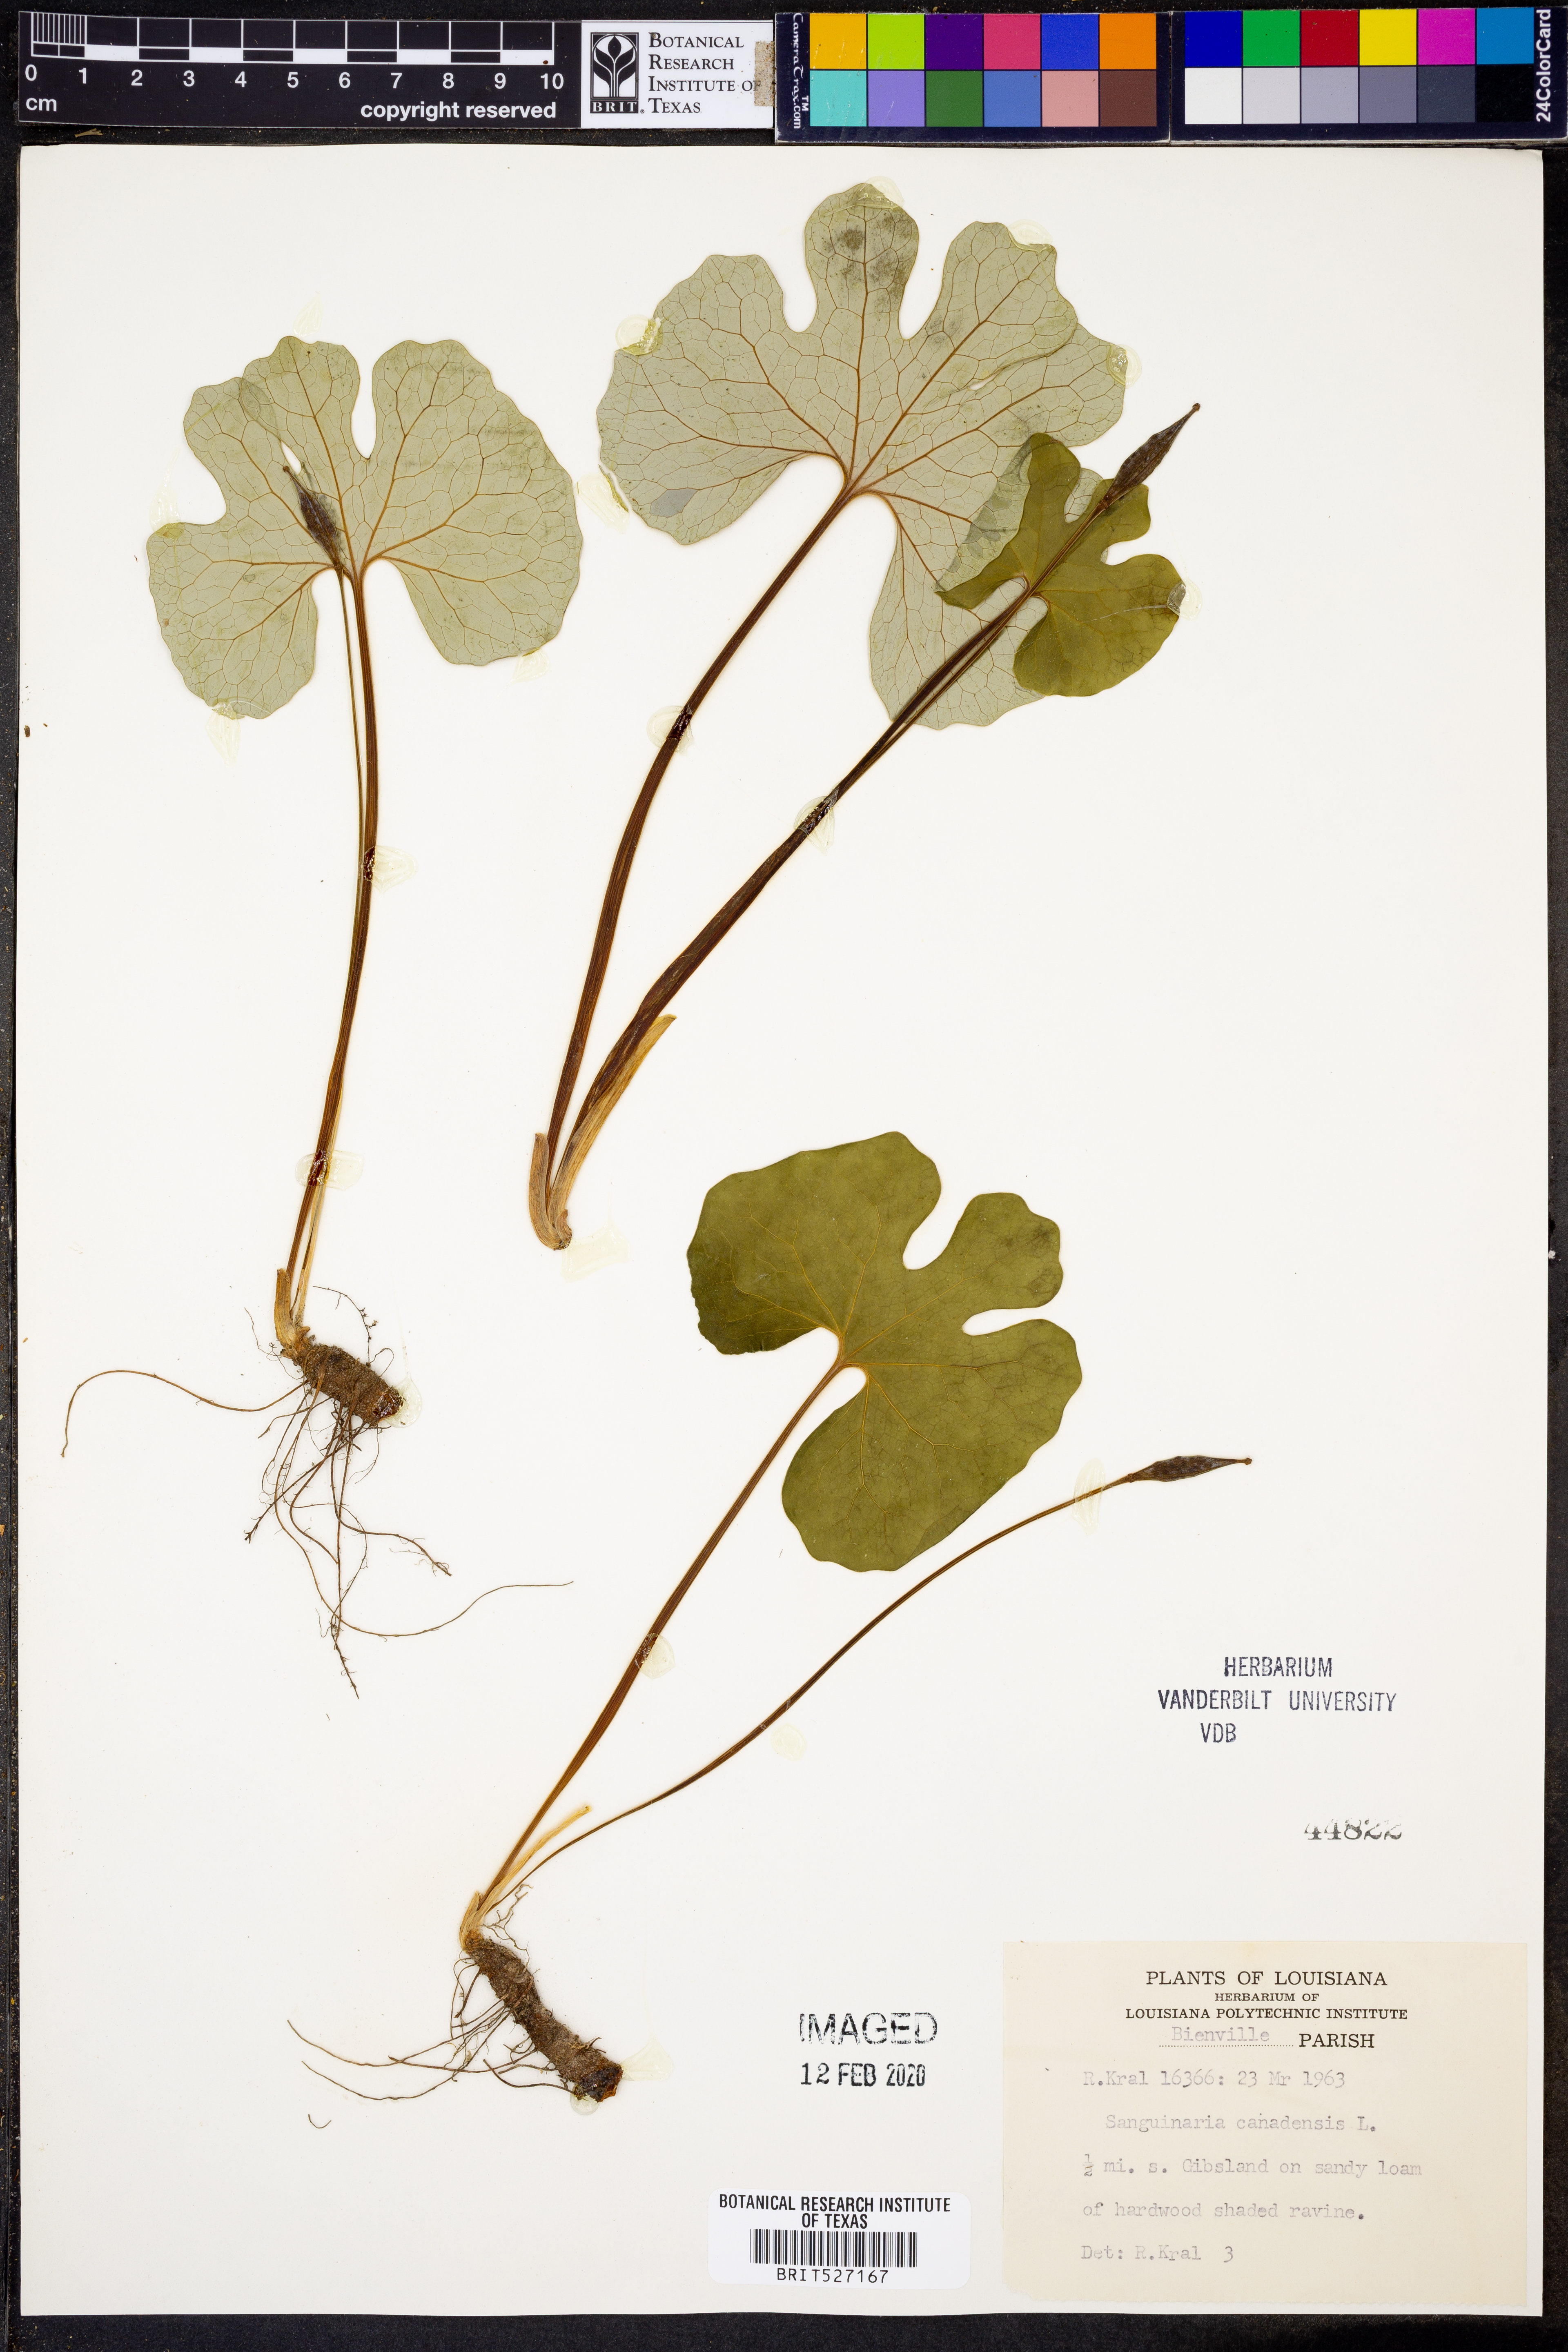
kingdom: Plantae
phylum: Tracheophyta
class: Magnoliopsida
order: Ranunculales
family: Papaveraceae
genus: Sanguinaria
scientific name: Sanguinaria canadensis
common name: Bloodroot
